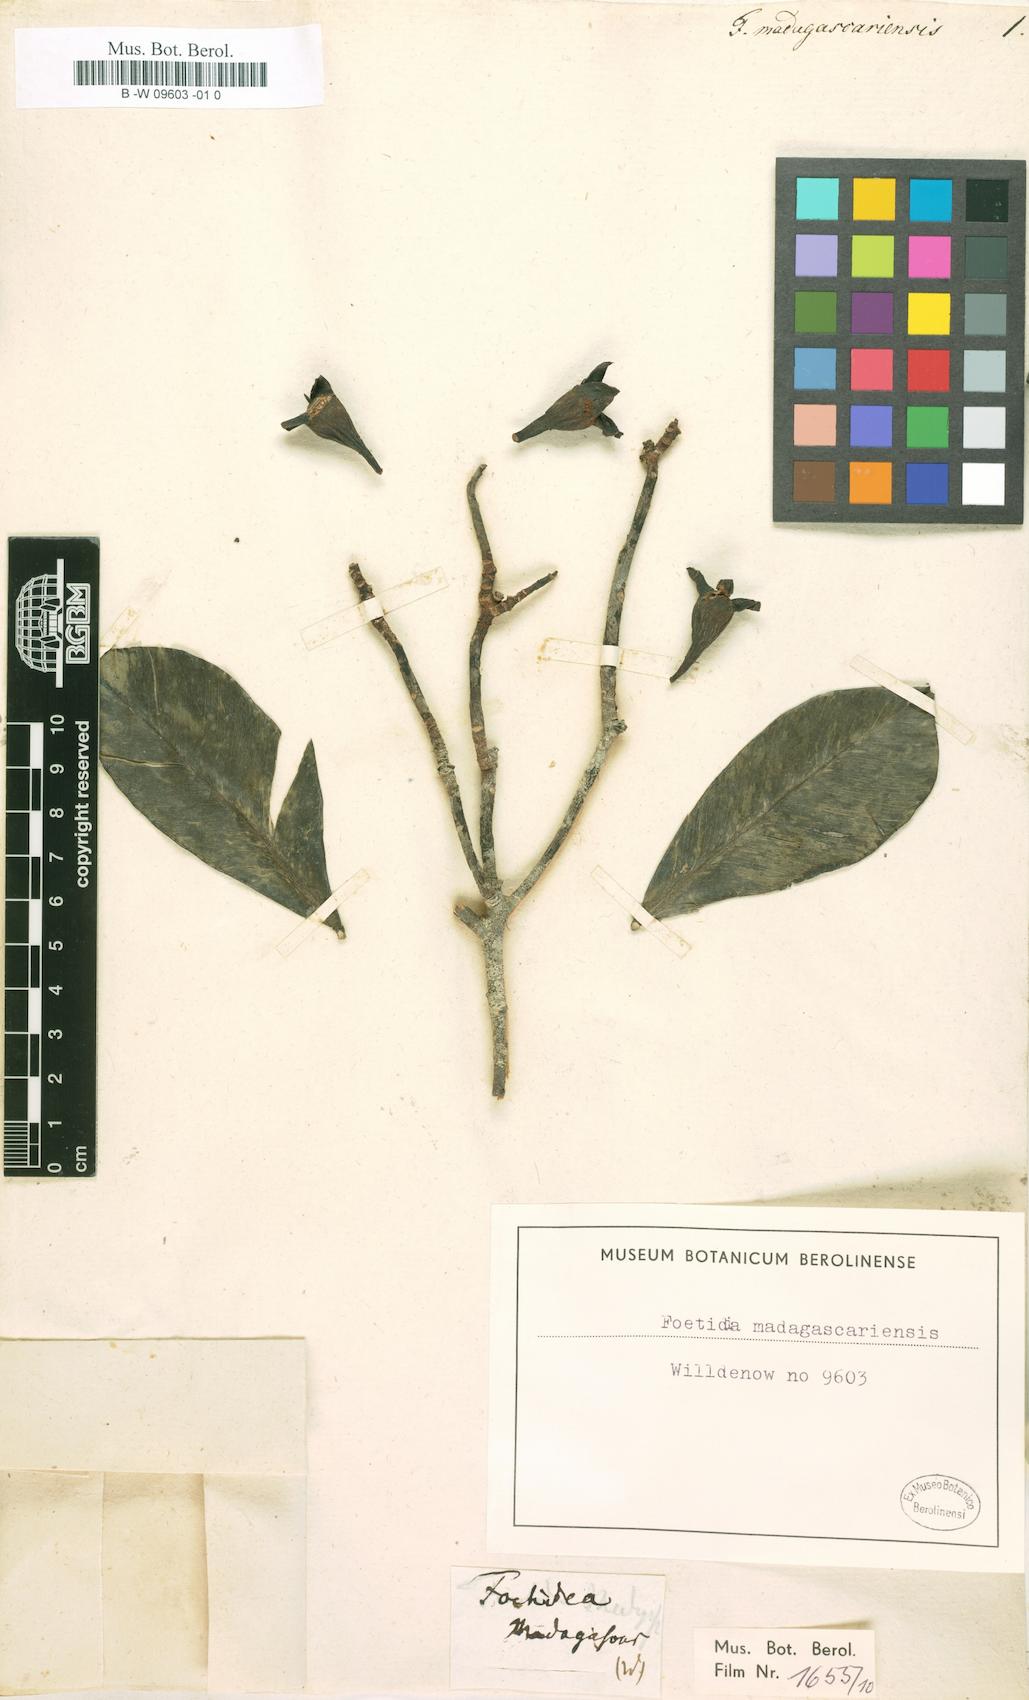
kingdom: Plantae
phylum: Tracheophyta
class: Magnoliopsida
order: Ericales
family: Lecythidaceae
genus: Foetidia
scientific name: Foetidia
